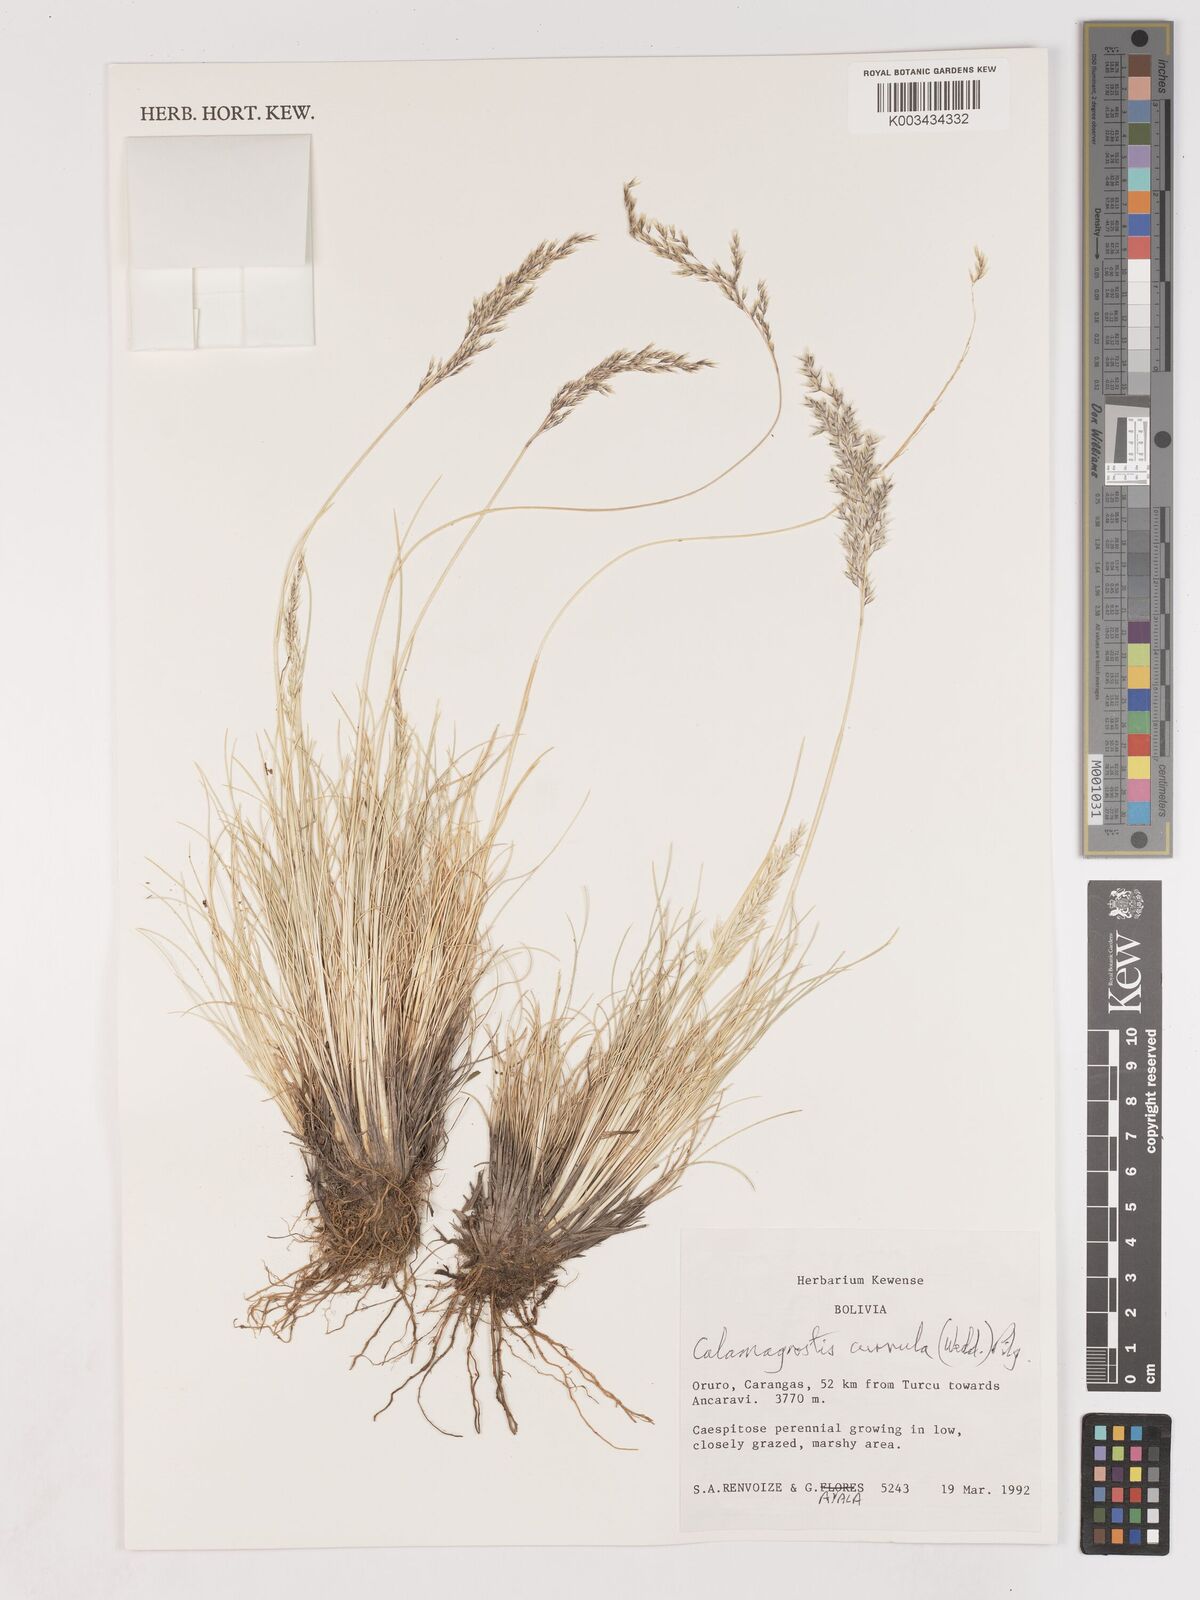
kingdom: Plantae
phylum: Tracheophyta
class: Liliopsida
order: Poales
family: Poaceae
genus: Cinnagrostis
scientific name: Cinnagrostis brevifolia
